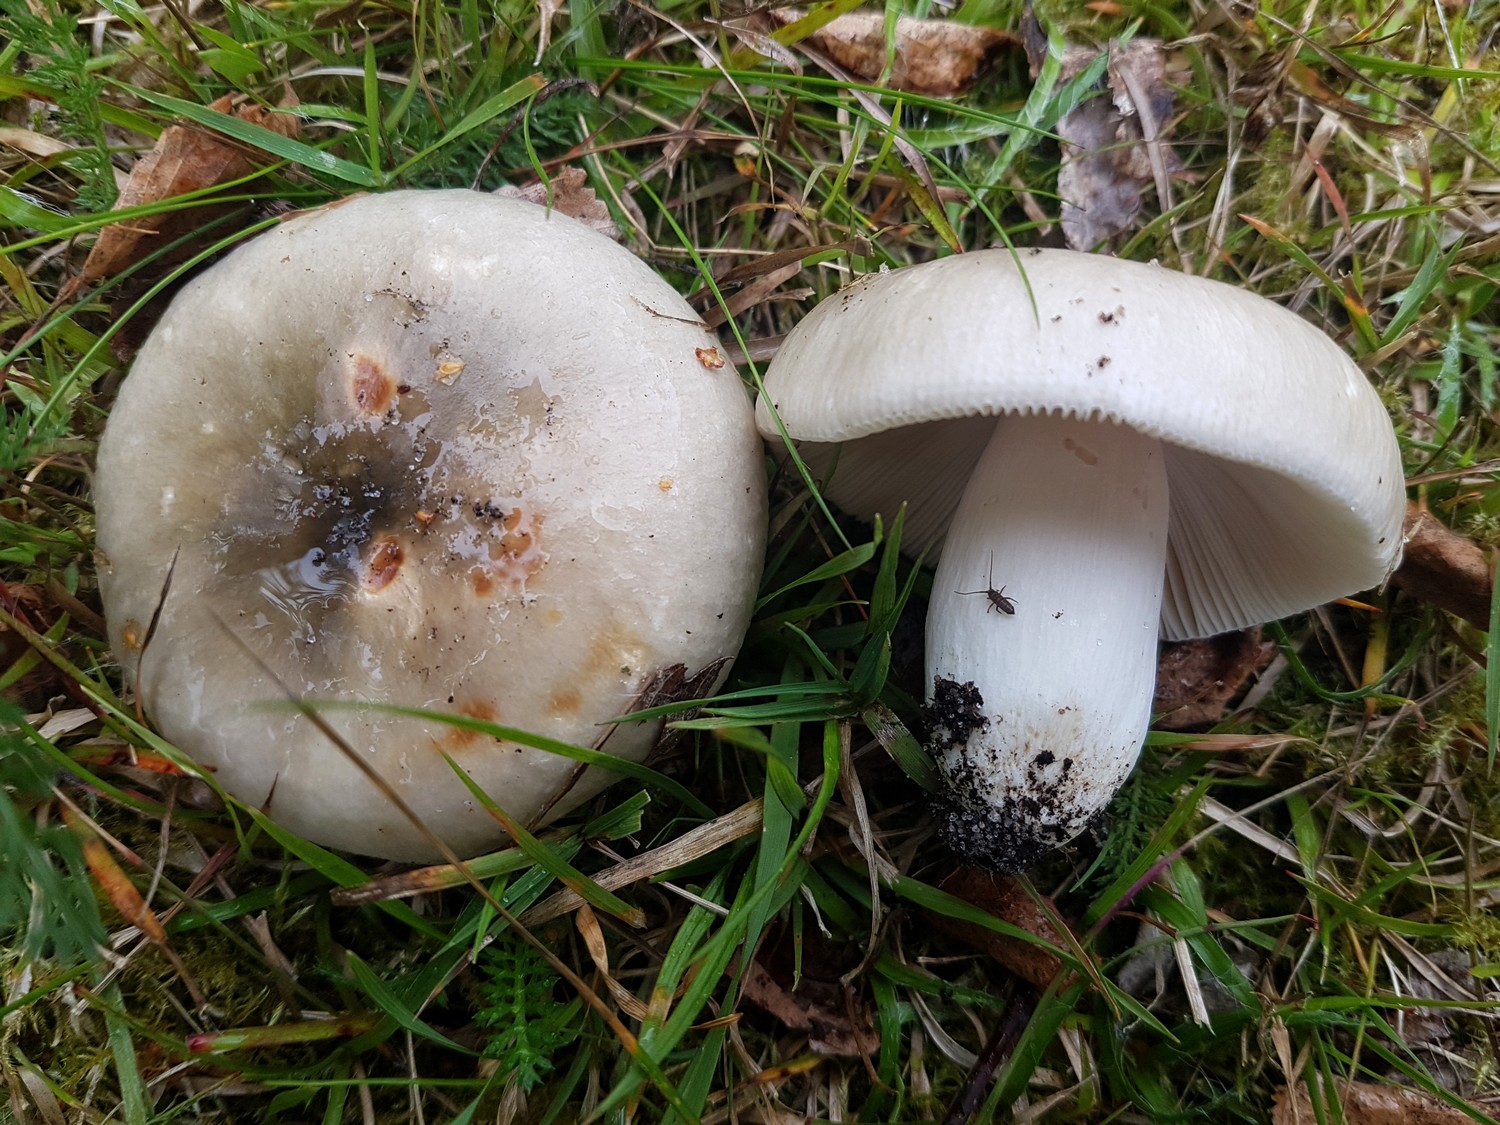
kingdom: Fungi
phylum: Basidiomycota
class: Agaricomycetes
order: Russulales
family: Russulaceae
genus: Russula
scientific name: Russula aeruginea
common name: græsgrøn skørhat
